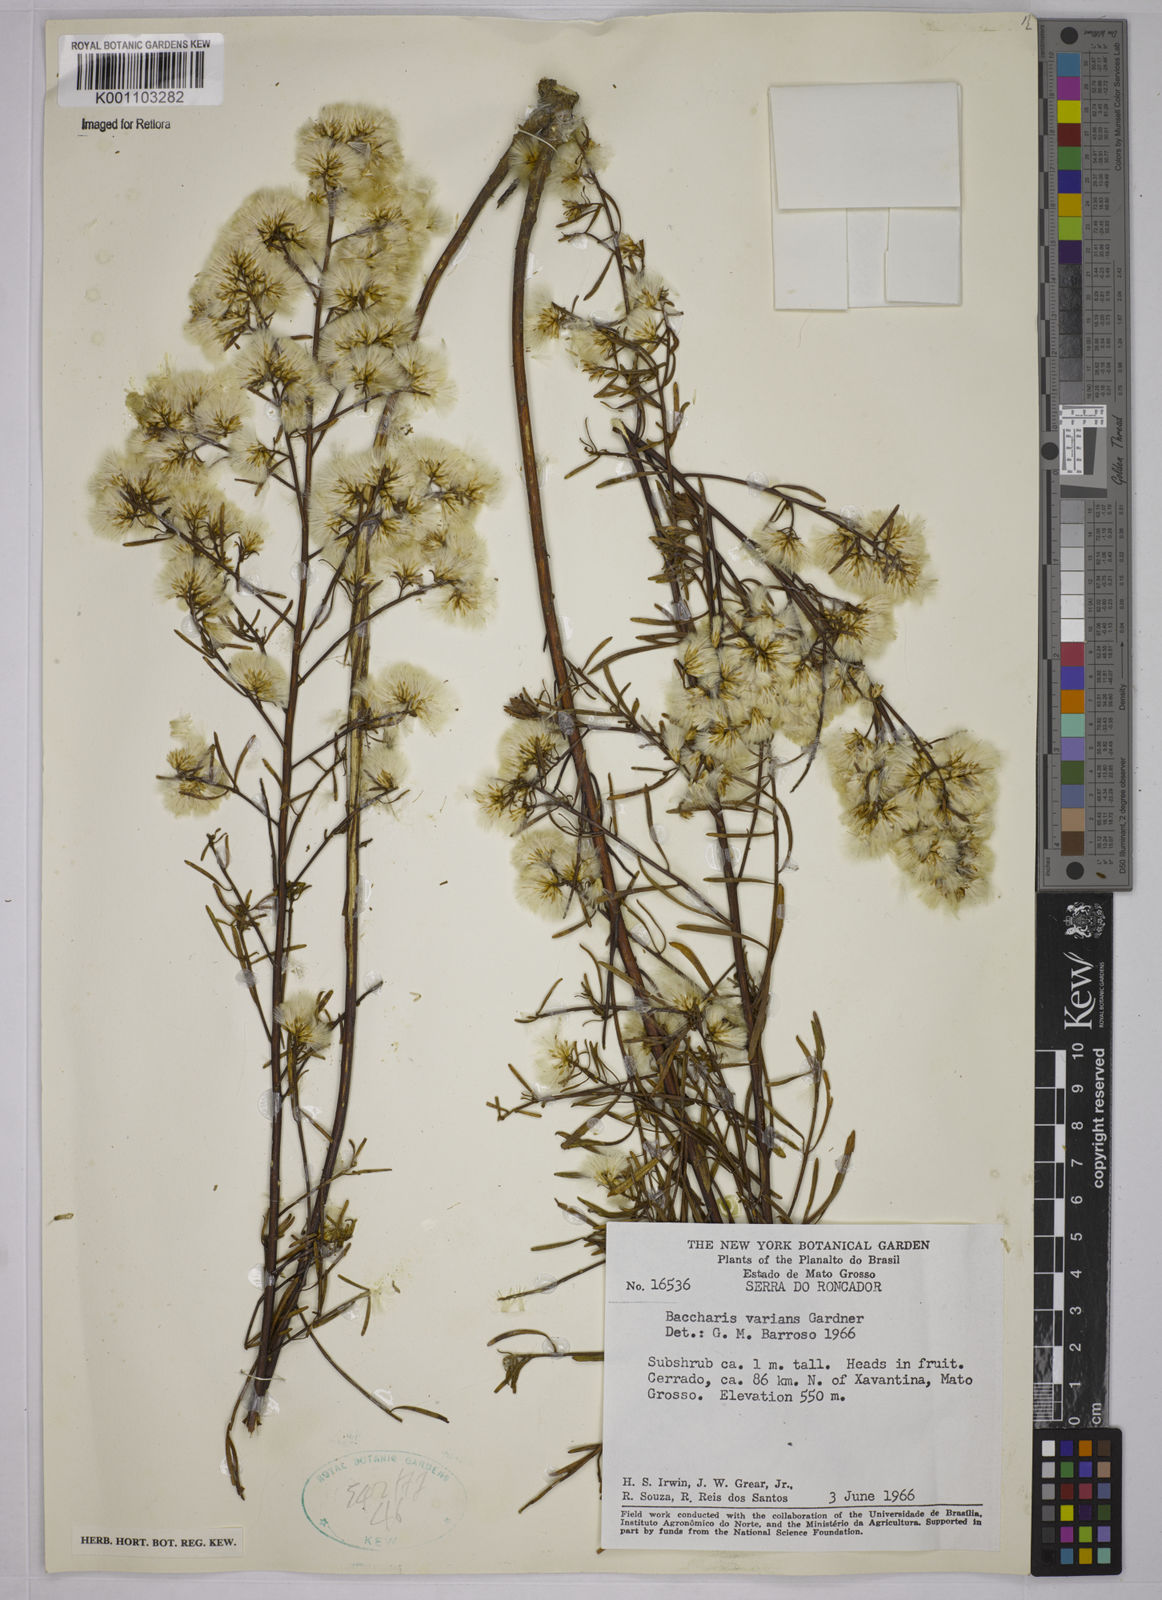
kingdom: Plantae
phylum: Tracheophyta
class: Magnoliopsida
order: Asterales
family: Asteraceae
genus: Baccharis
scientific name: Baccharis varians
